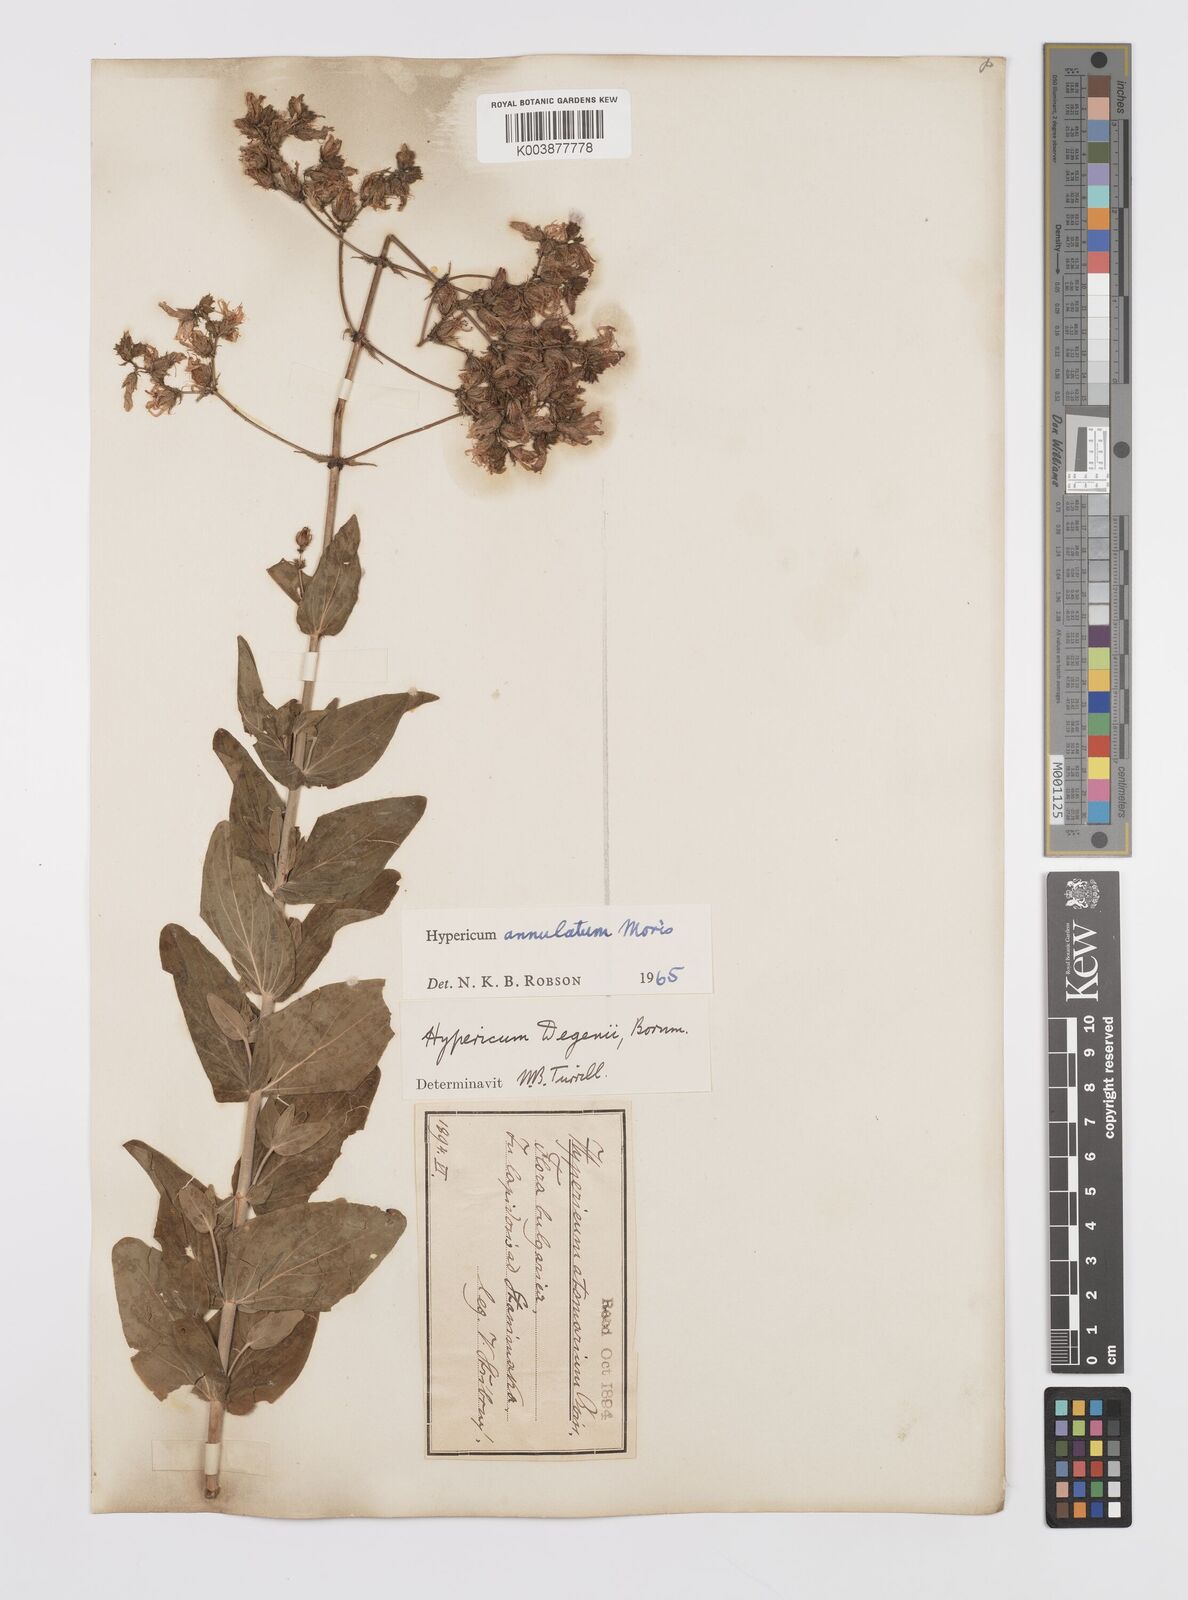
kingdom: Plantae
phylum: Tracheophyta
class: Magnoliopsida
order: Malpighiales
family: Hypericaceae
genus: Hypericum
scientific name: Hypericum annulatum
